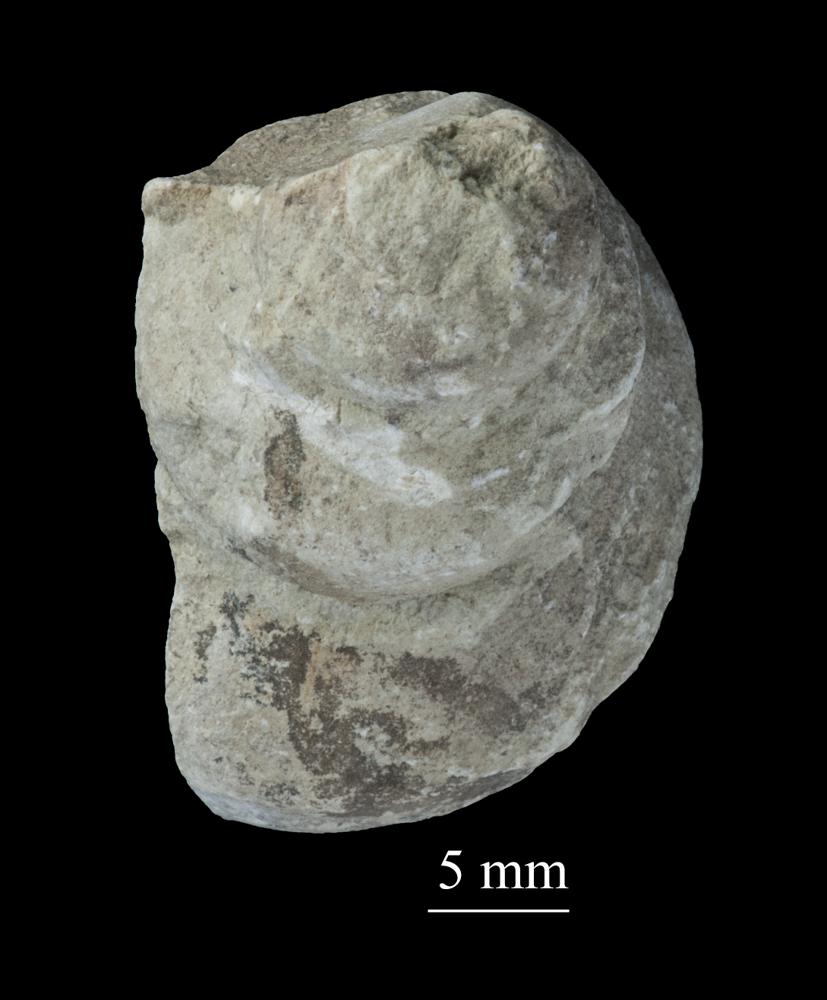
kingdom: Animalia
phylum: Mollusca
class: Gastropoda
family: Lophospiridae
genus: Ruedemannia
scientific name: Ruedemannia Worthenia borkholmiensis
